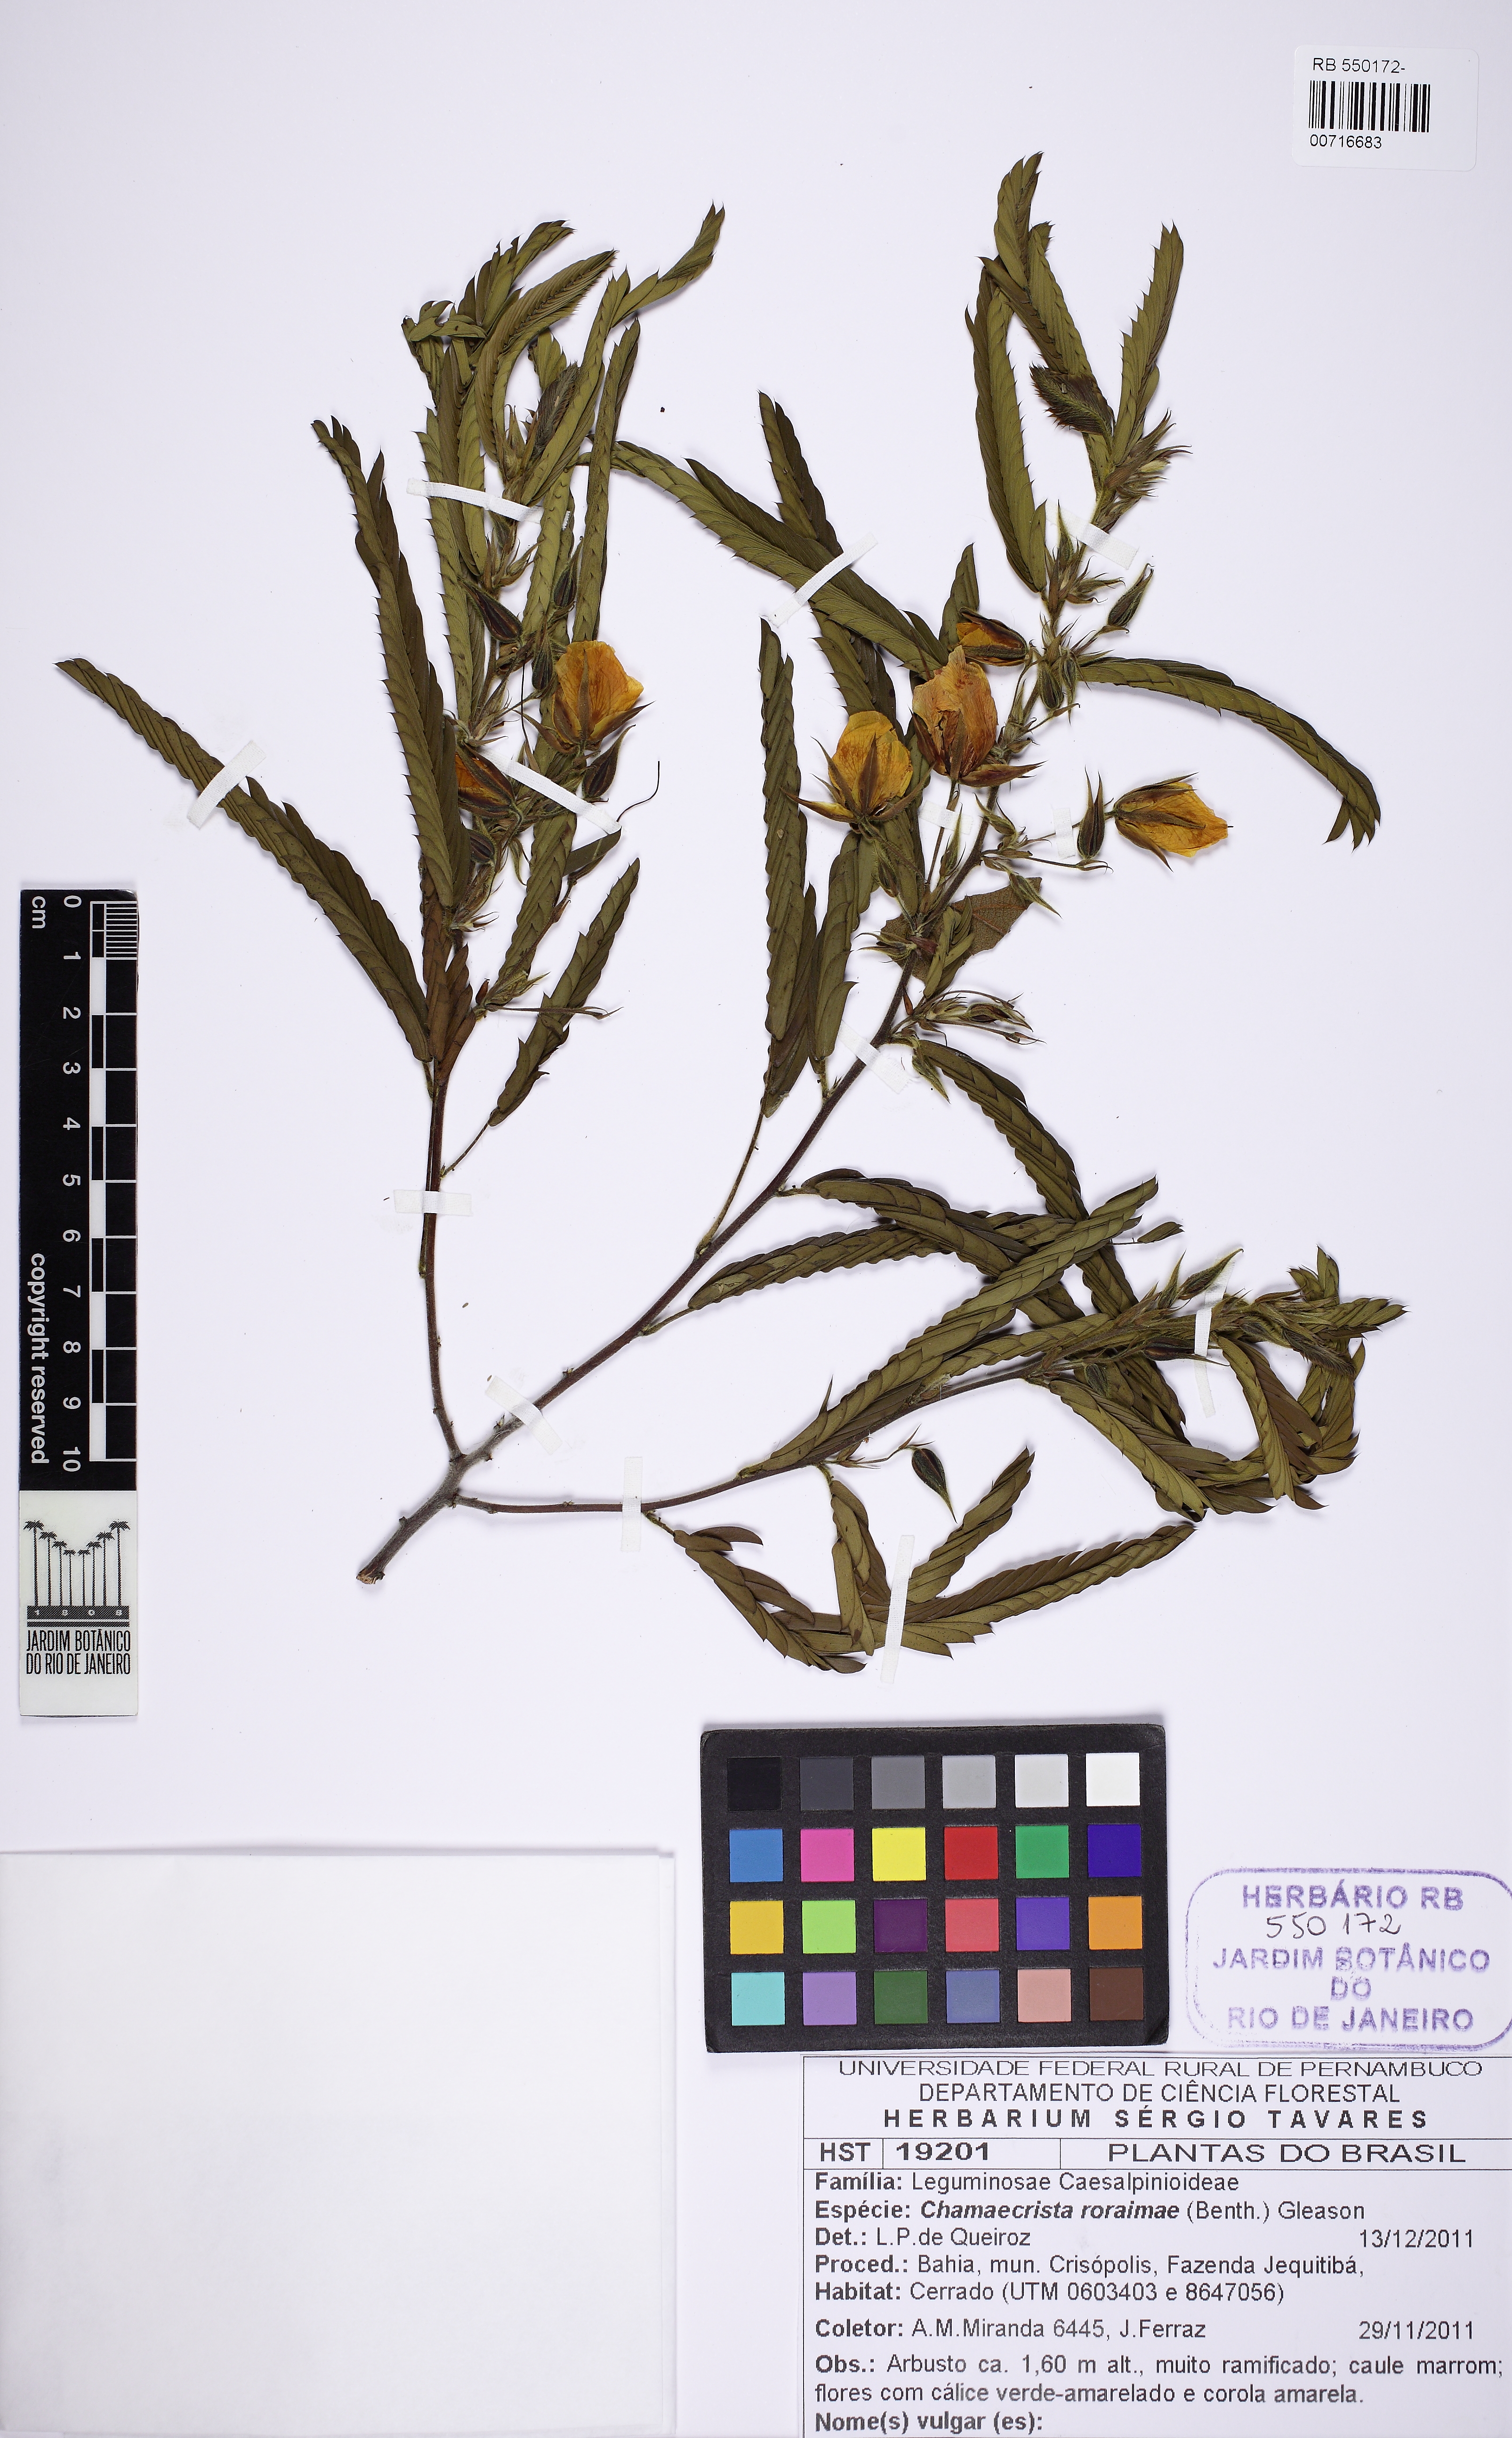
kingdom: Plantae
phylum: Tracheophyta
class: Magnoliopsida
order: Fabales
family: Fabaceae
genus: Chamaecrista
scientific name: Chamaecrista roraimae
